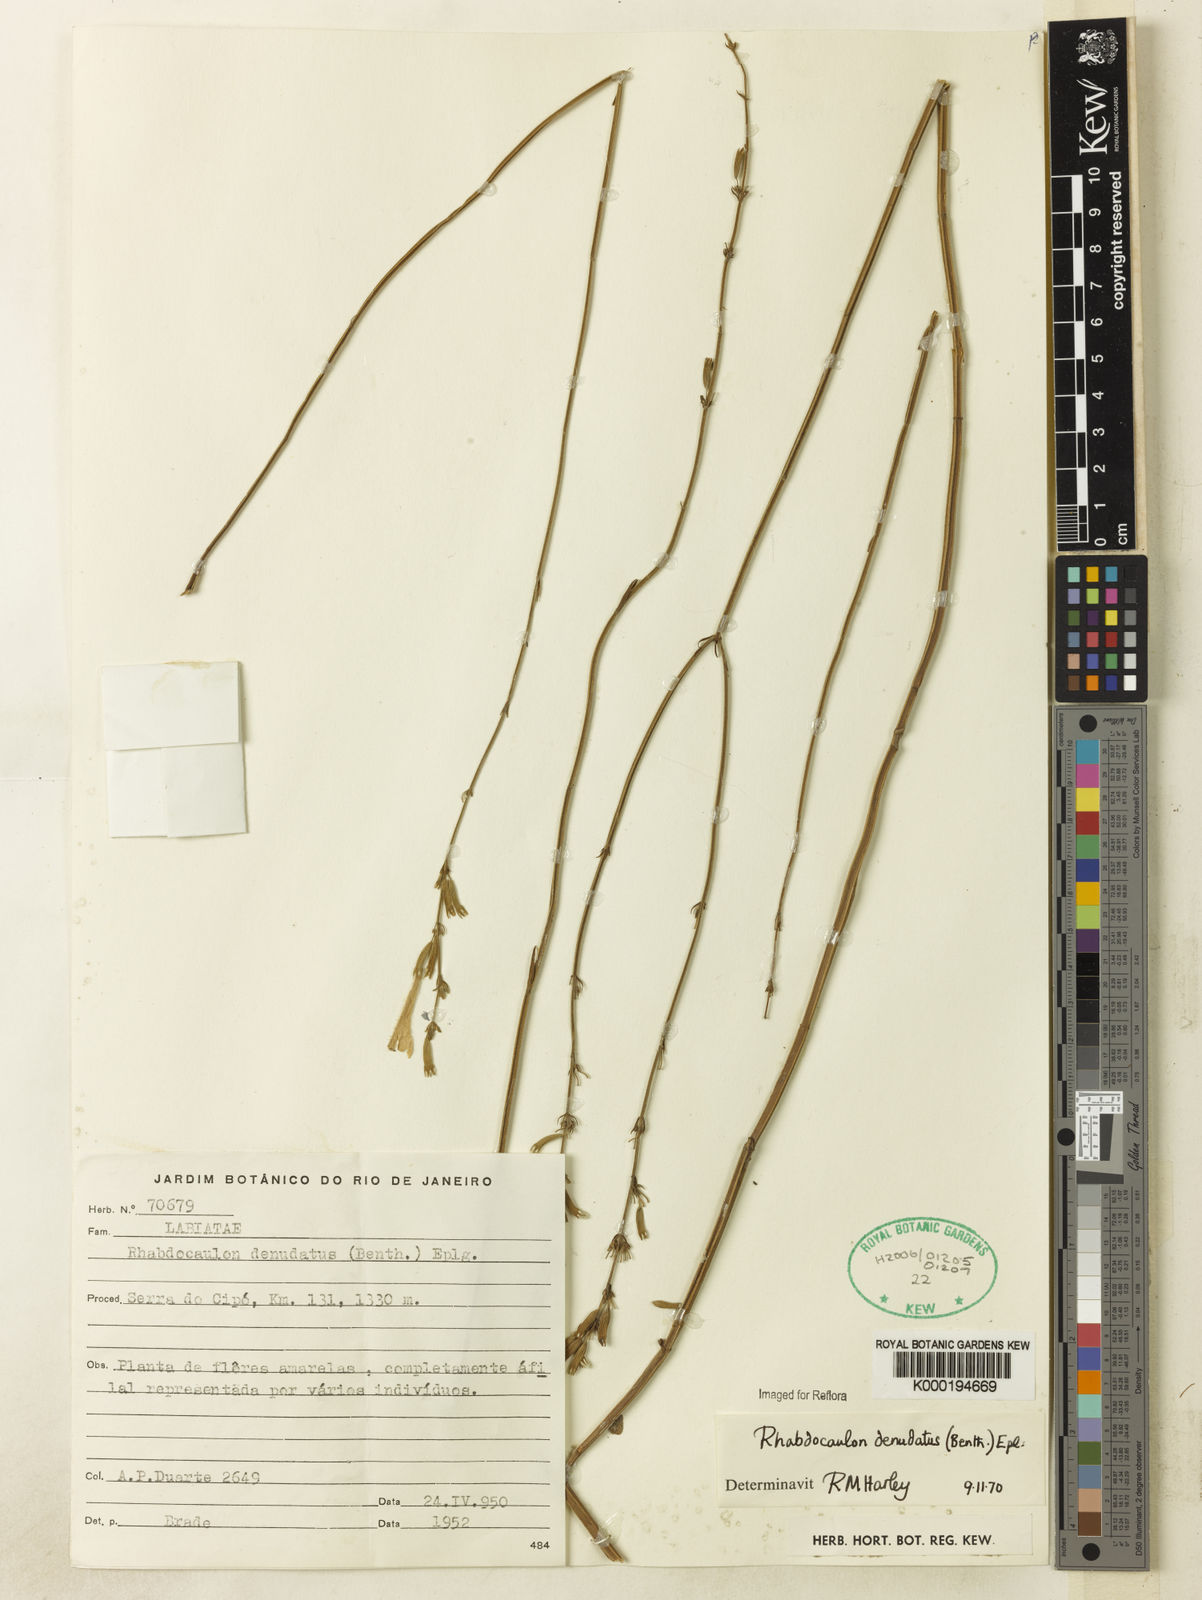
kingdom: Plantae
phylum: Tracheophyta
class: Magnoliopsida
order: Lamiales
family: Lamiaceae
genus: Rhabdocaulon
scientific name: Rhabdocaulon denudatum
